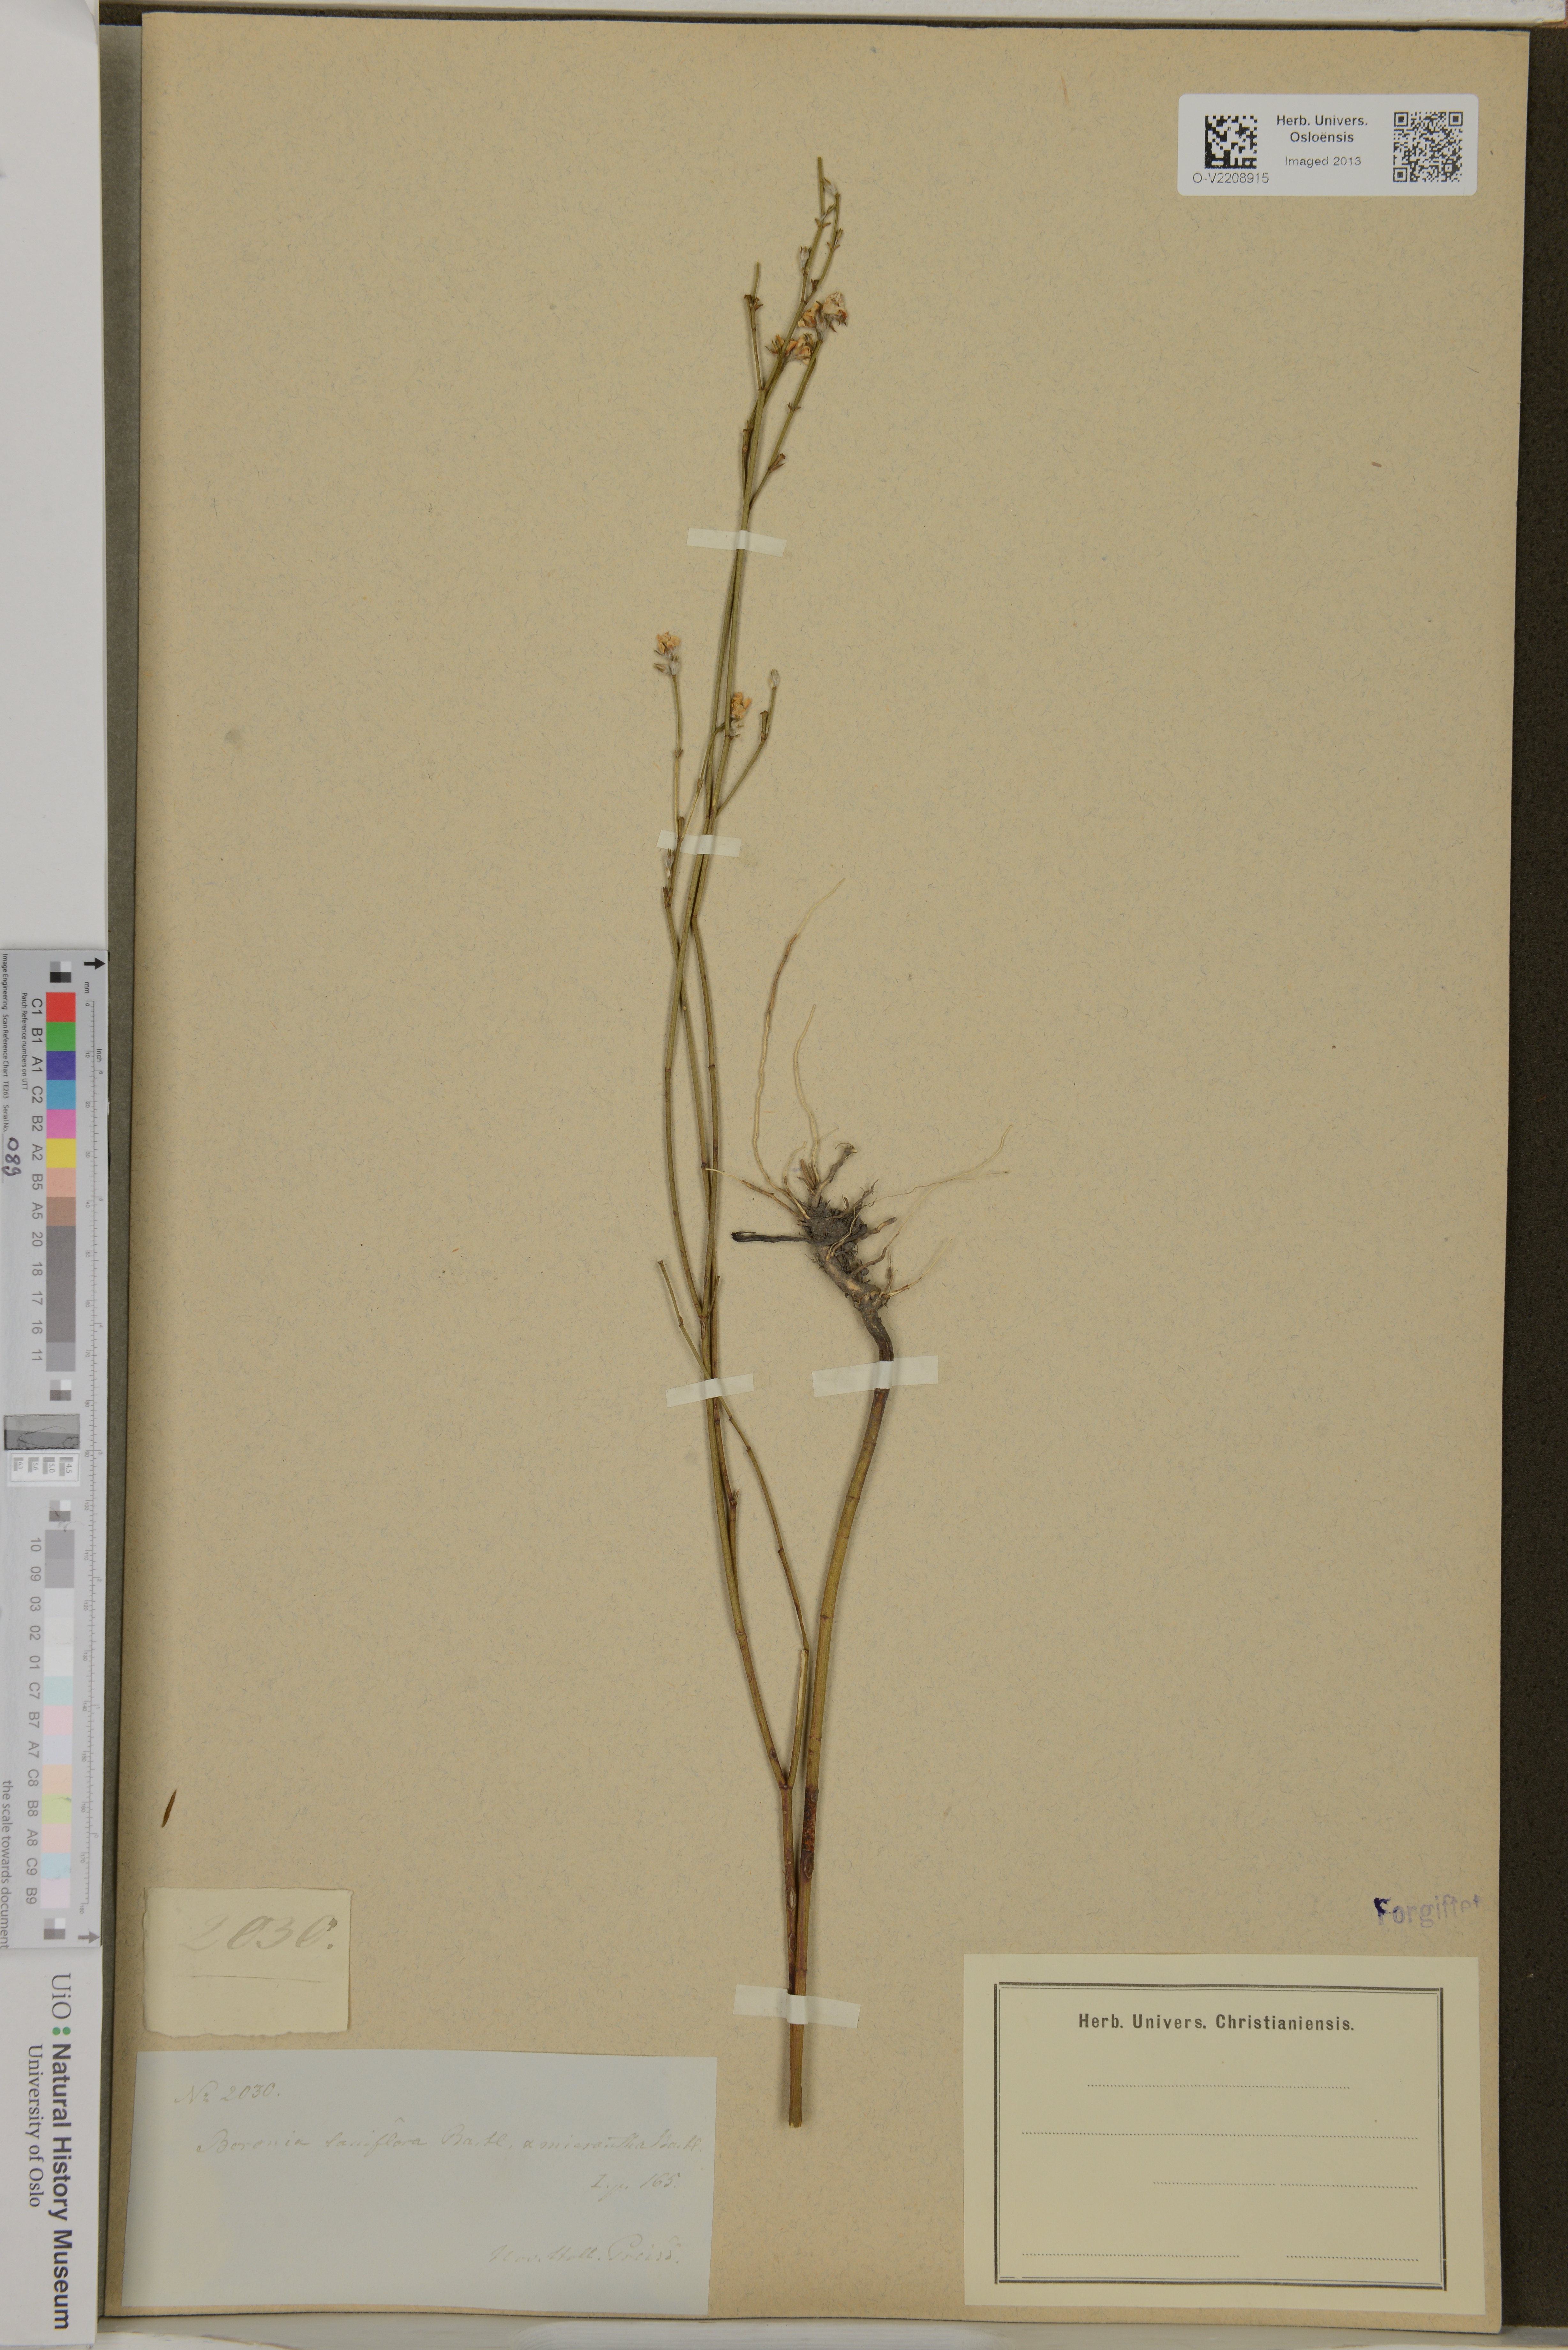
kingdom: Plantae
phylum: Tracheophyta
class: Magnoliopsida
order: Sapindales
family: Rutaceae
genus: Boronia
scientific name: Boronia ledifolia
